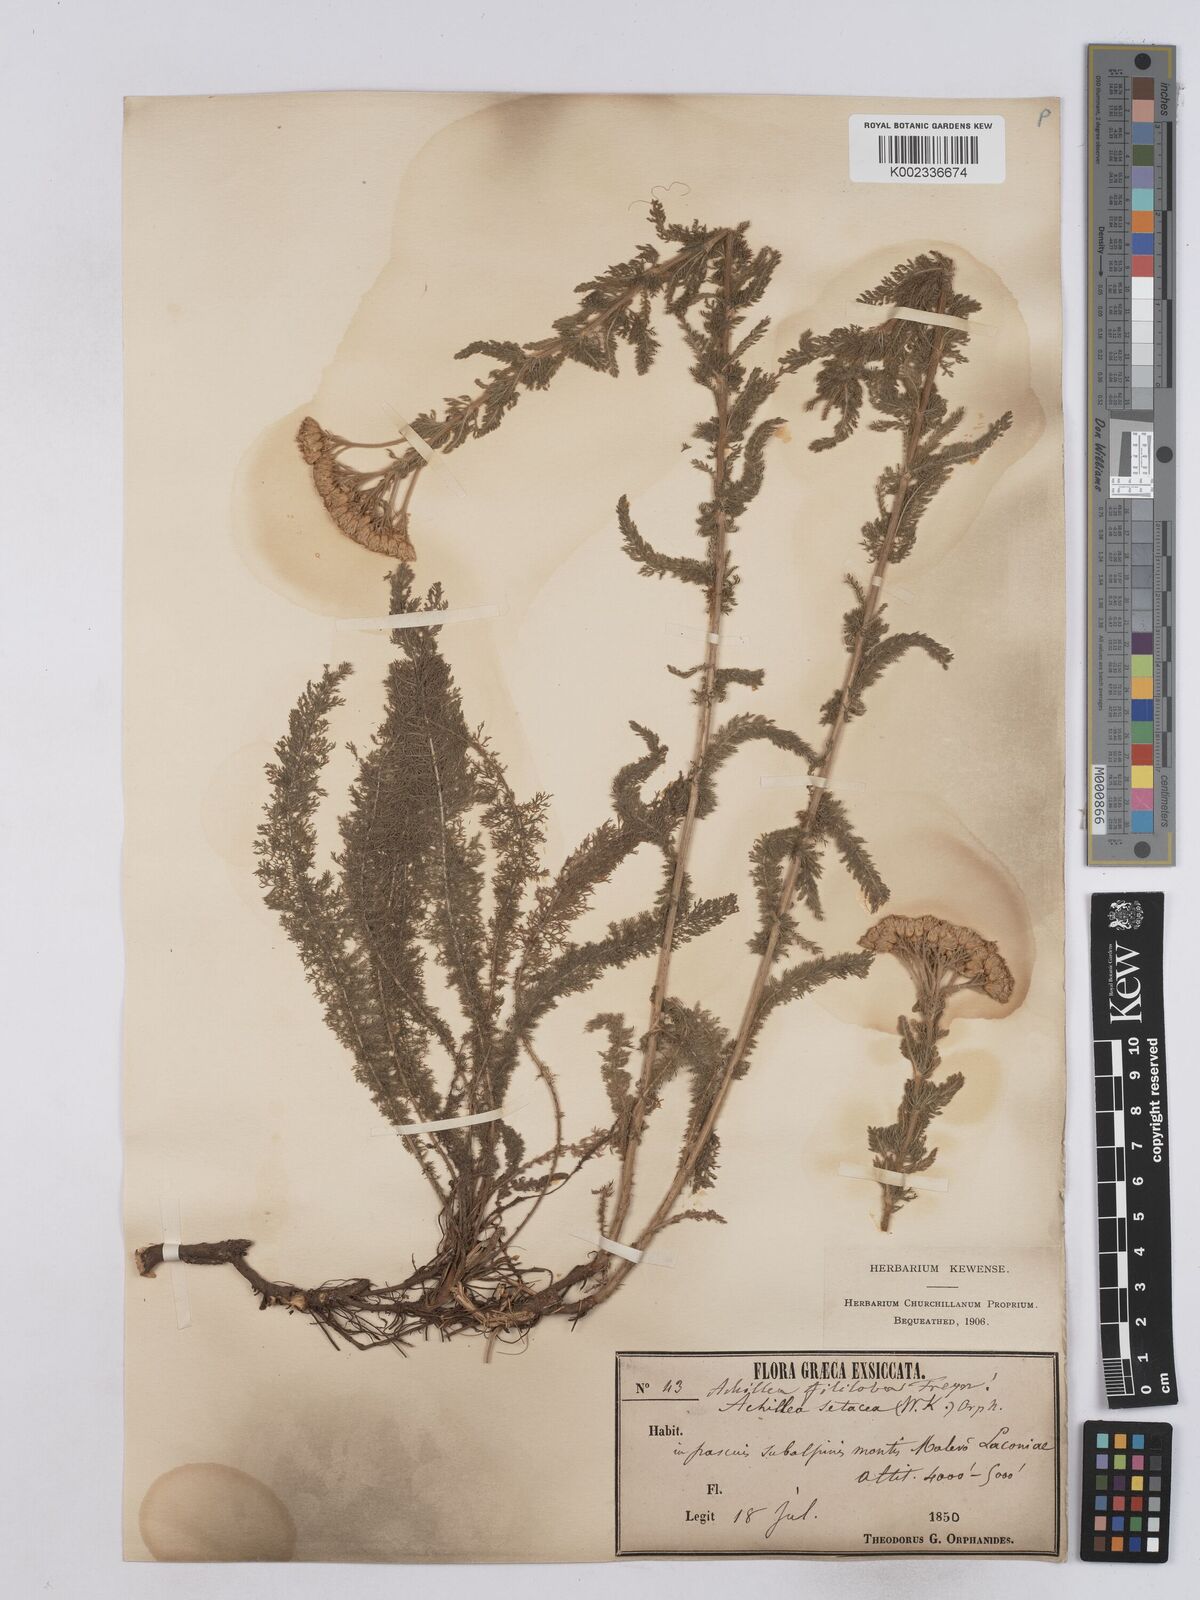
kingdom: Plantae
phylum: Tracheophyta
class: Magnoliopsida
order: Asterales
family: Asteraceae
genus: Achillea
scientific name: Achillea setacea
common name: Bristly yarrow
